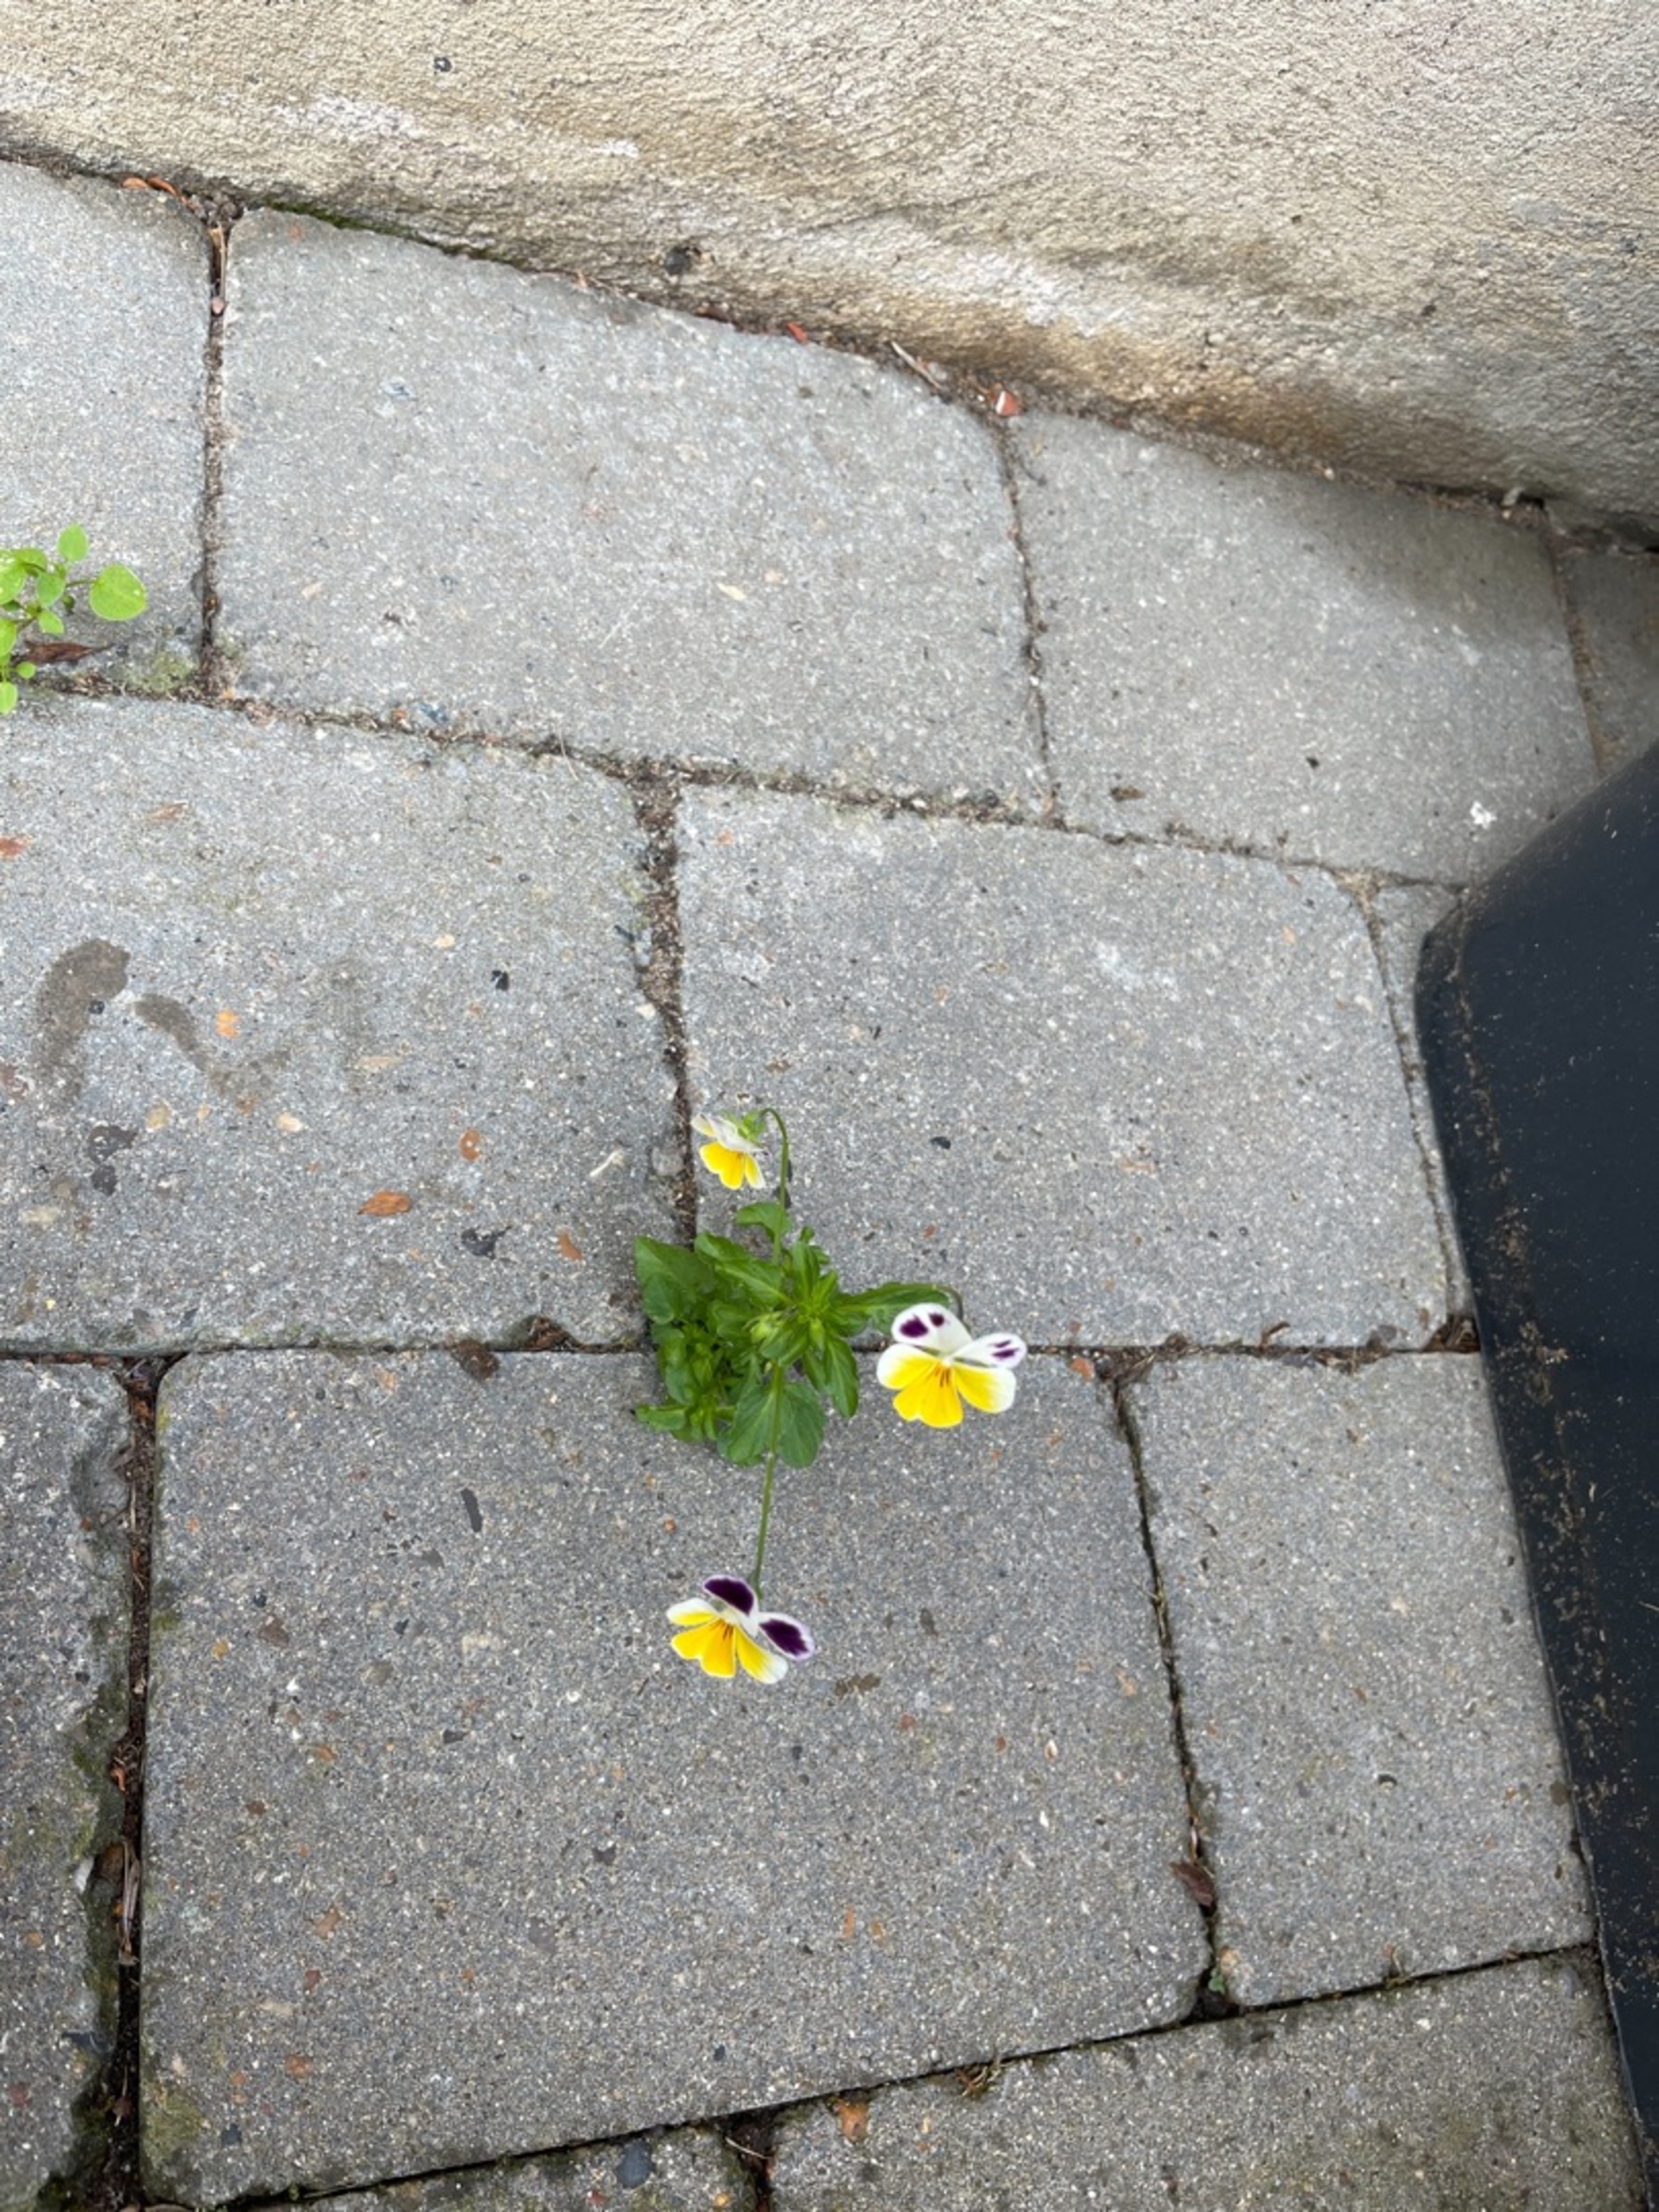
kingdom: Plantae
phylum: Tracheophyta
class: Magnoliopsida
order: Malpighiales
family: Violaceae
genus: Viola
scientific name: Viola wittrockiana
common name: Have-stedmoderblomst
